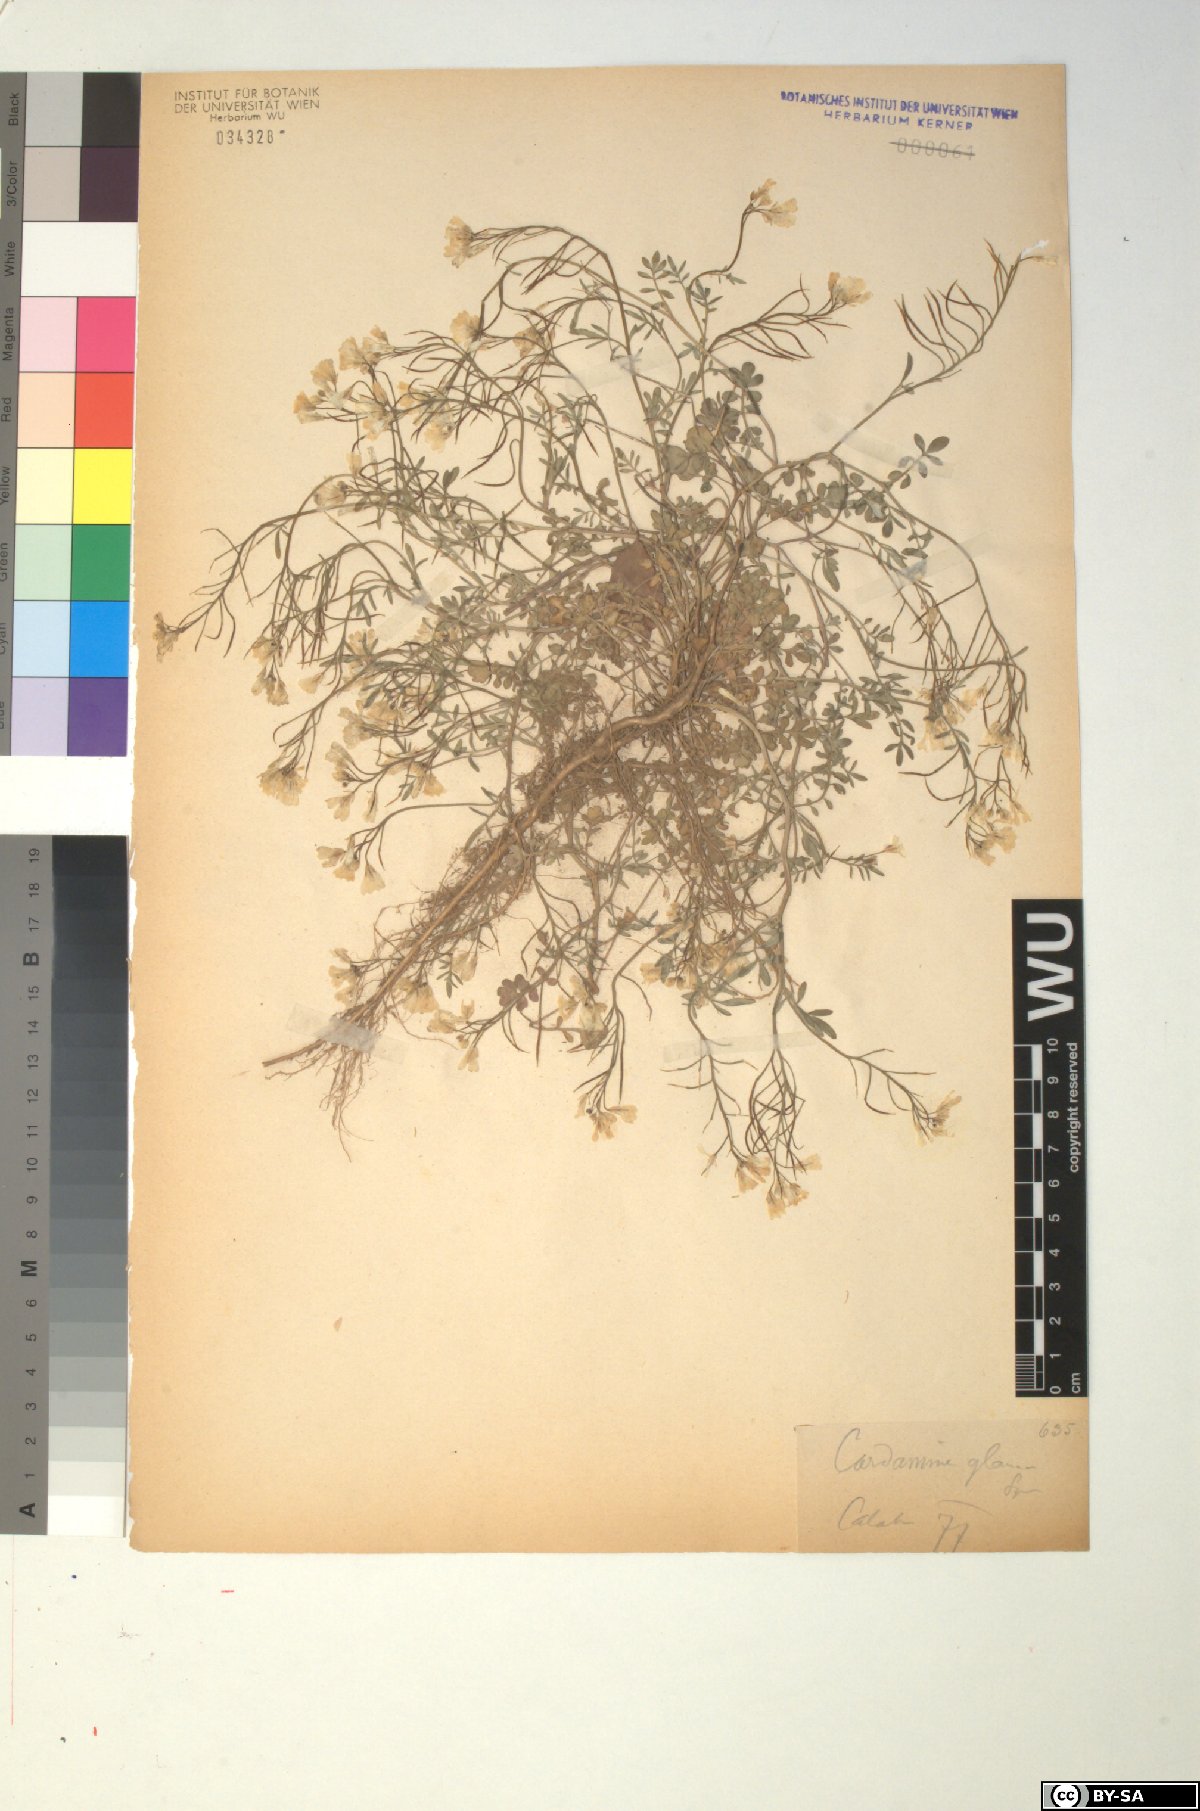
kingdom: Plantae
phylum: Tracheophyta
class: Magnoliopsida
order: Brassicales
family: Brassicaceae
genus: Cardamine
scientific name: Cardamine glauca
